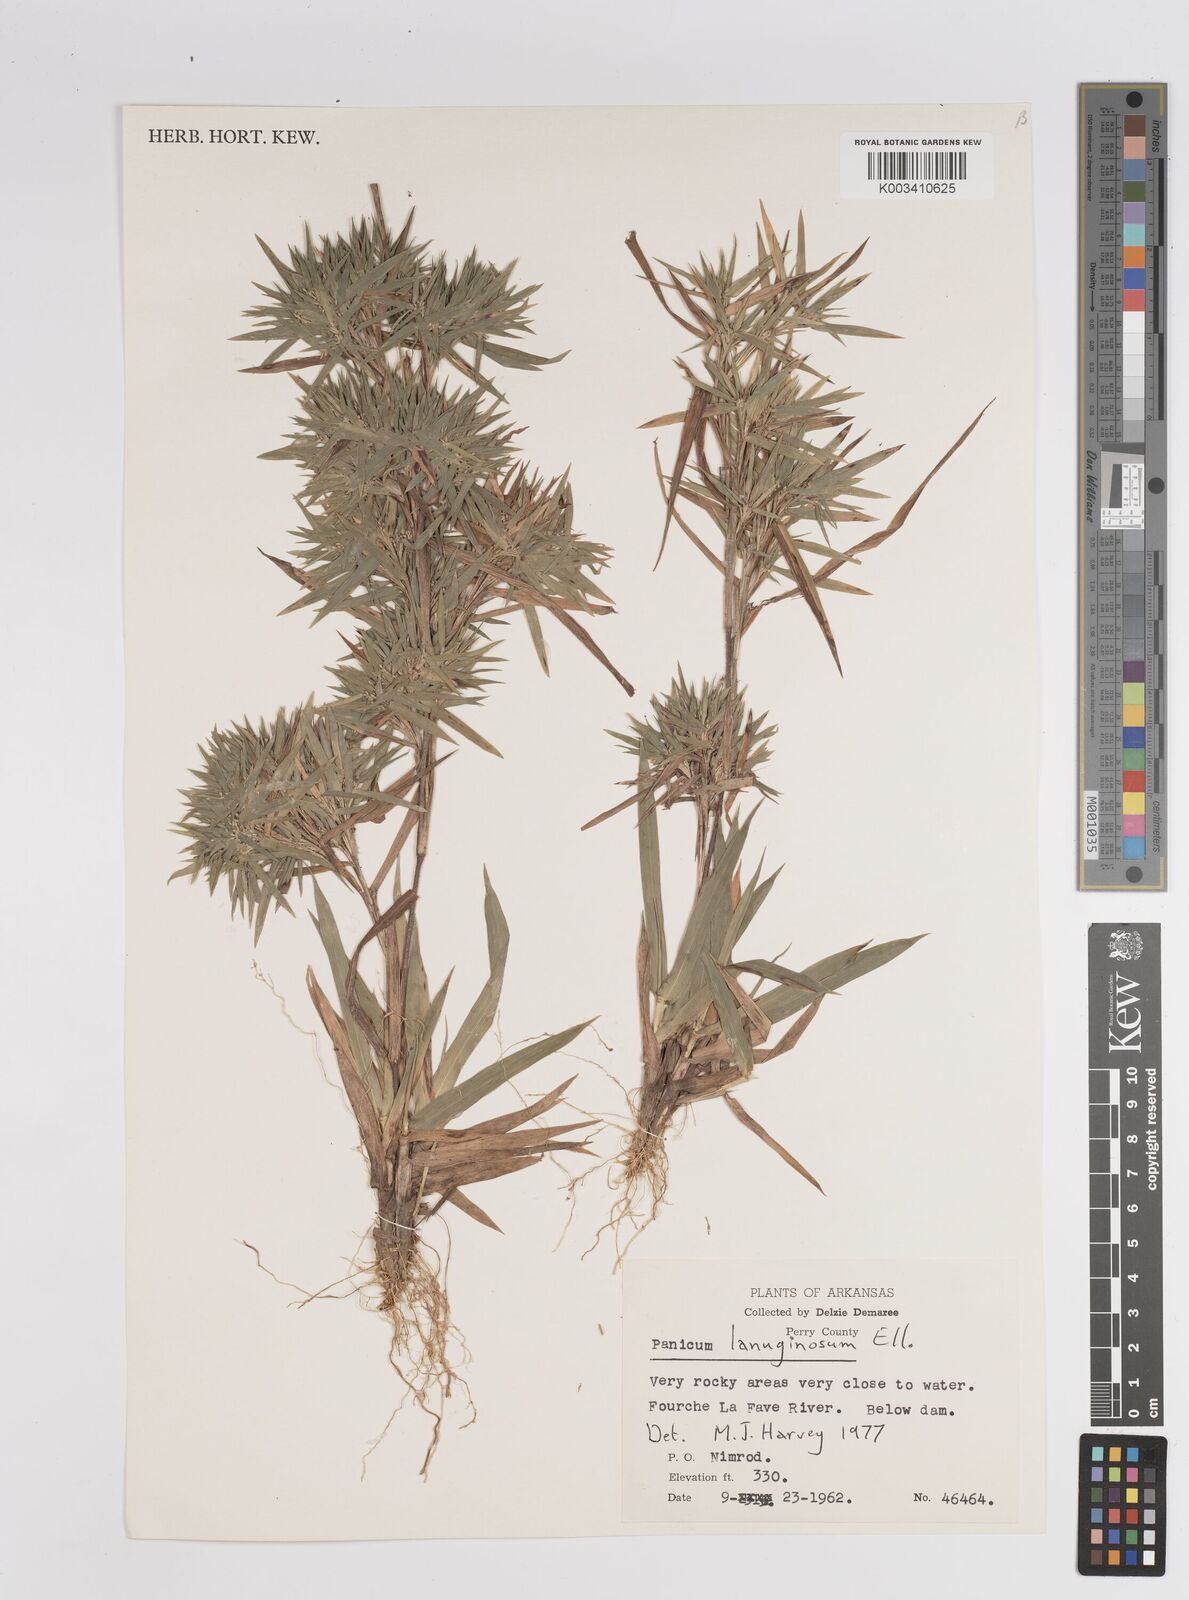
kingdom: Plantae
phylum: Tracheophyta
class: Liliopsida
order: Poales
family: Poaceae
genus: Dichanthelium
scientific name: Dichanthelium lanuginosum
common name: Woolly panicgrass
